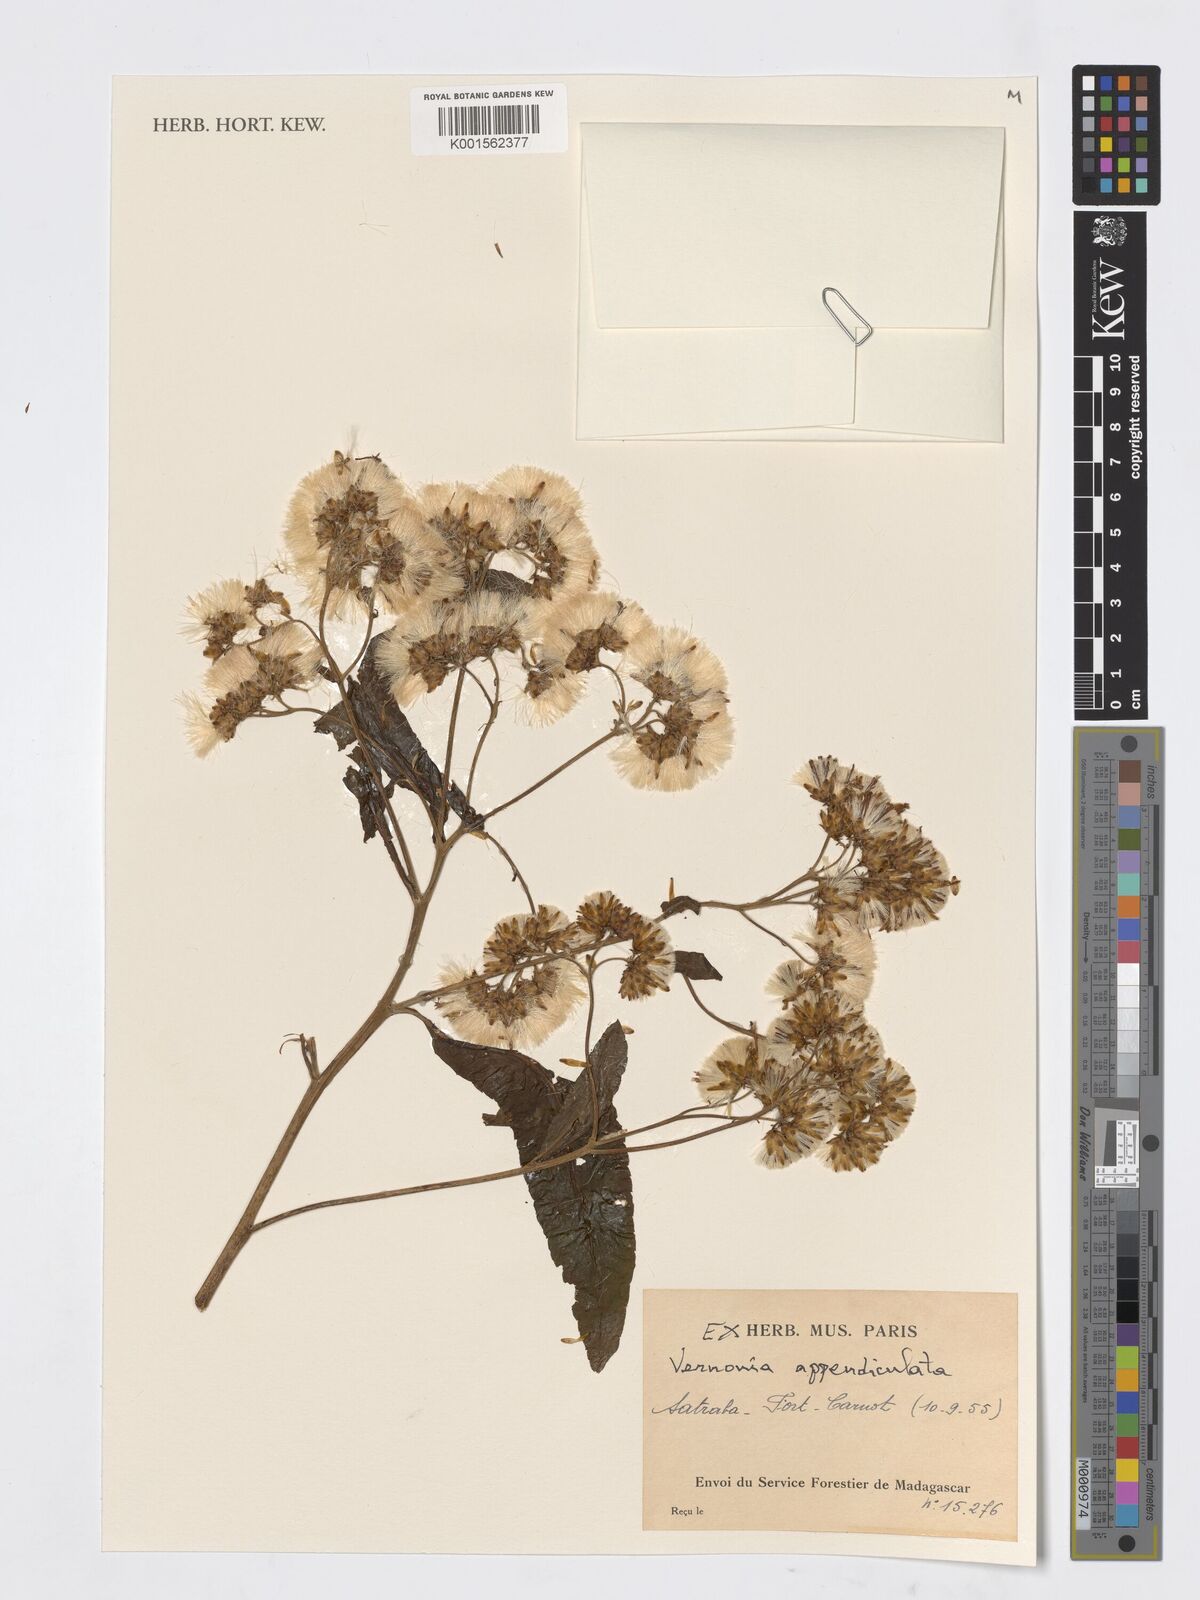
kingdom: Plantae
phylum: Tracheophyta
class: Magnoliopsida
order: Asterales
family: Asteraceae
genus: Gymnanthemum
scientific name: Gymnanthemum appendiculatum
